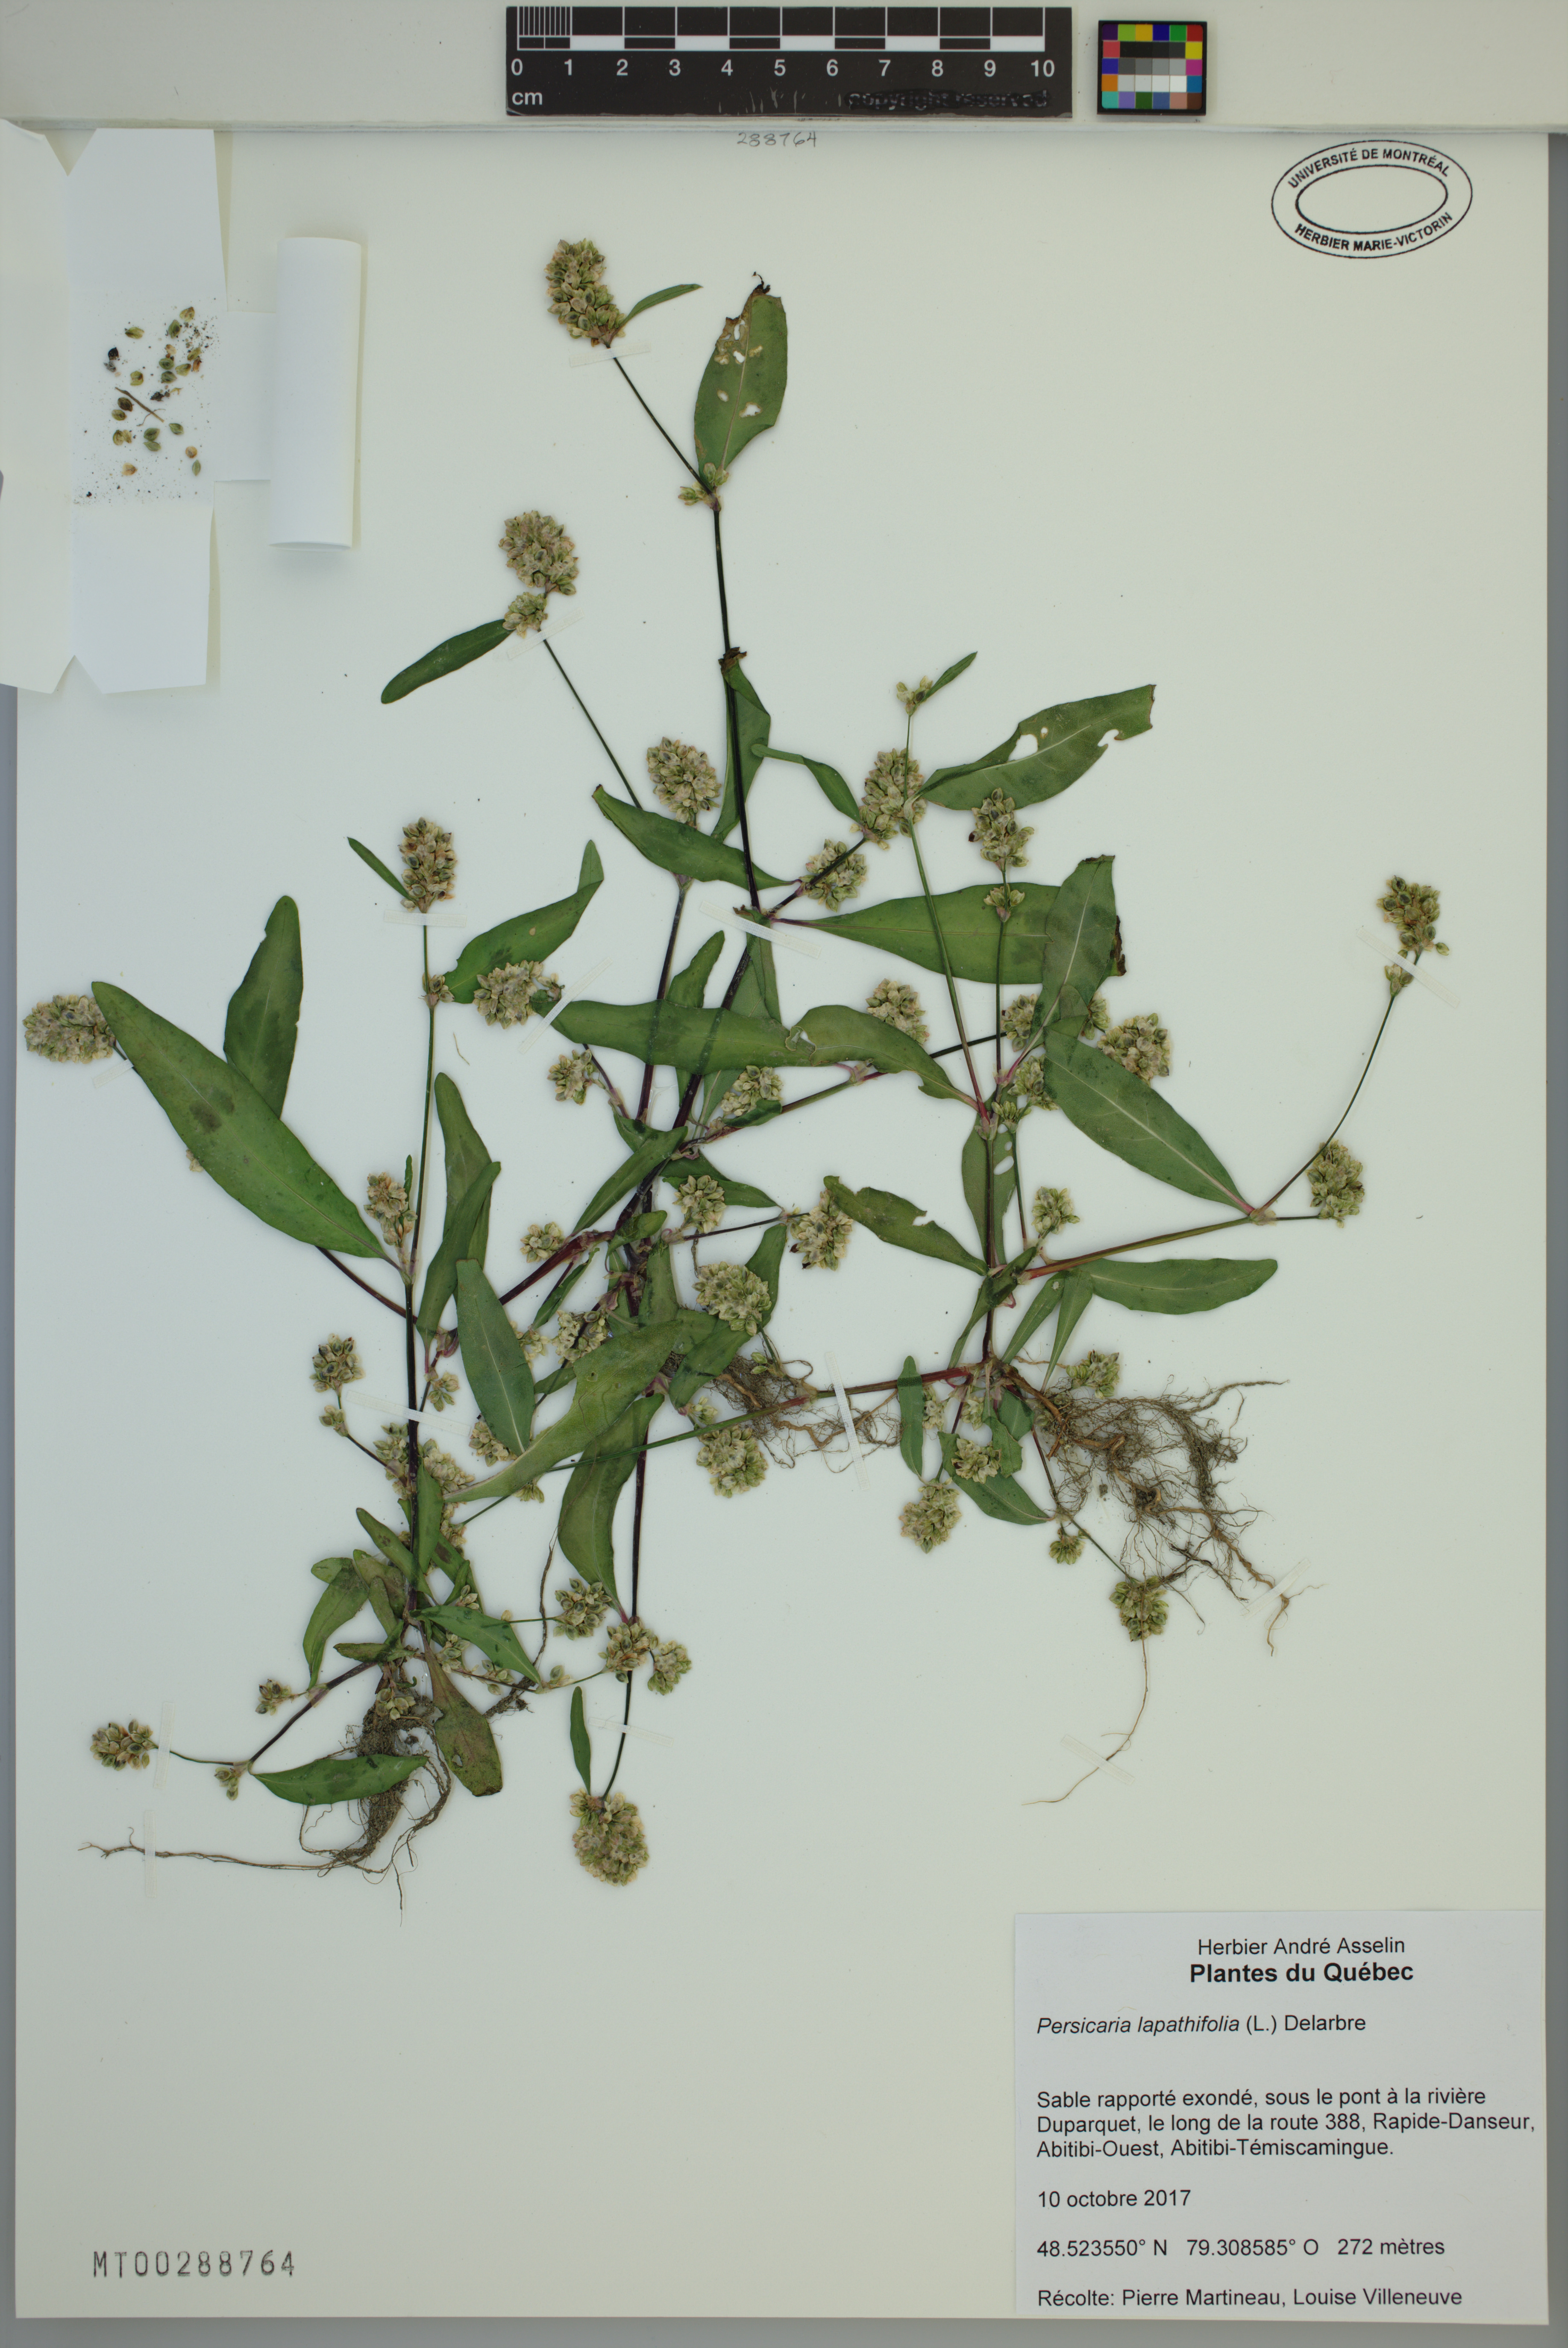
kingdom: Plantae
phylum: Tracheophyta
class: Magnoliopsida
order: Caryophyllales
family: Polygonaceae
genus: Persicaria
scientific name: Persicaria lapathifolia
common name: Curlytop knotweed
